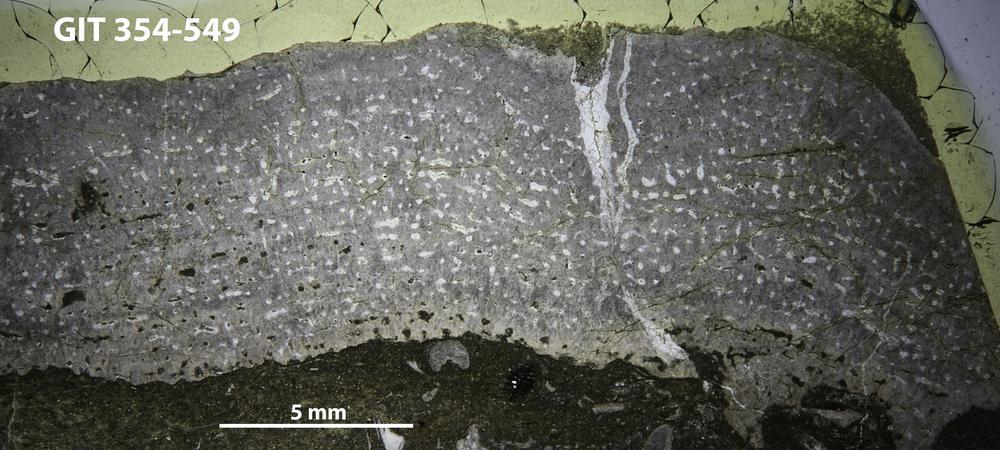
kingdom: Animalia
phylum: Porifera
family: Stromatoporidae
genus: Eostromatopora
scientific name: Eostromatopora
